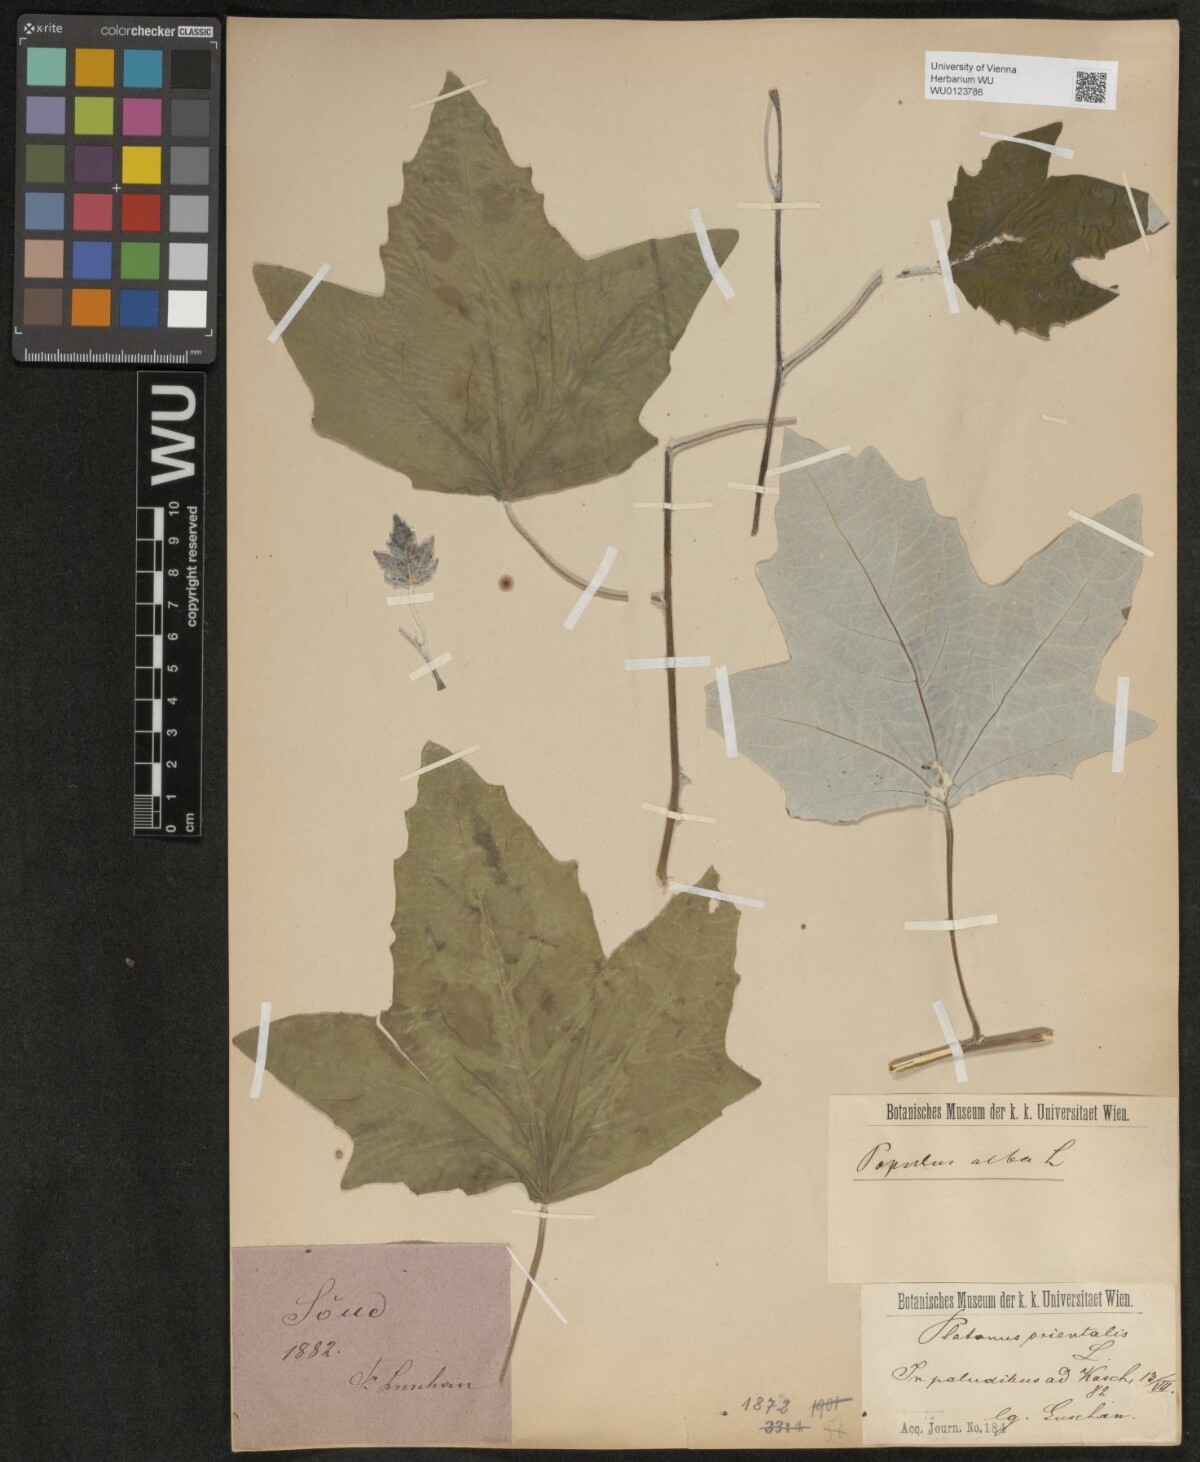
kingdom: Plantae
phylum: Tracheophyta
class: Magnoliopsida
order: Malpighiales
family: Salicaceae
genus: Populus
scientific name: Populus alba
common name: White poplar
